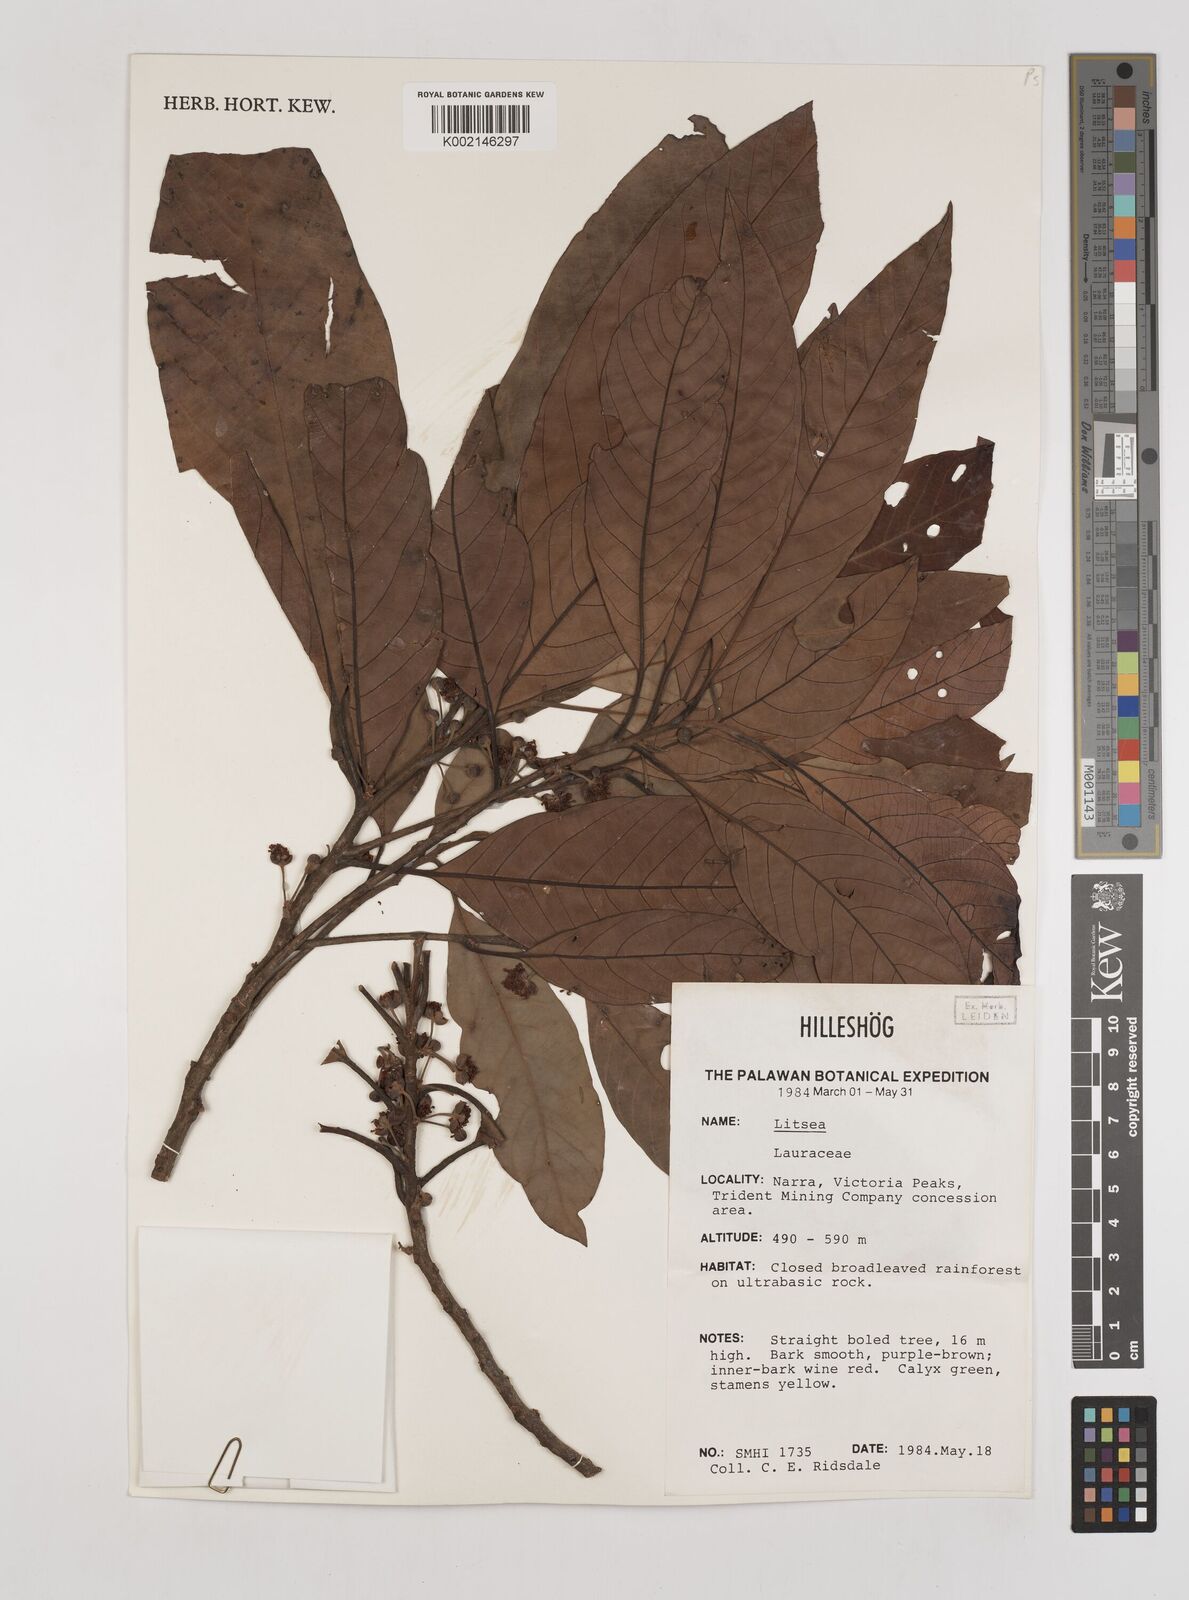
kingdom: Plantae
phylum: Tracheophyta
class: Magnoliopsida
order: Laurales
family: Lauraceae
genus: Litsea
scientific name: Litsea
